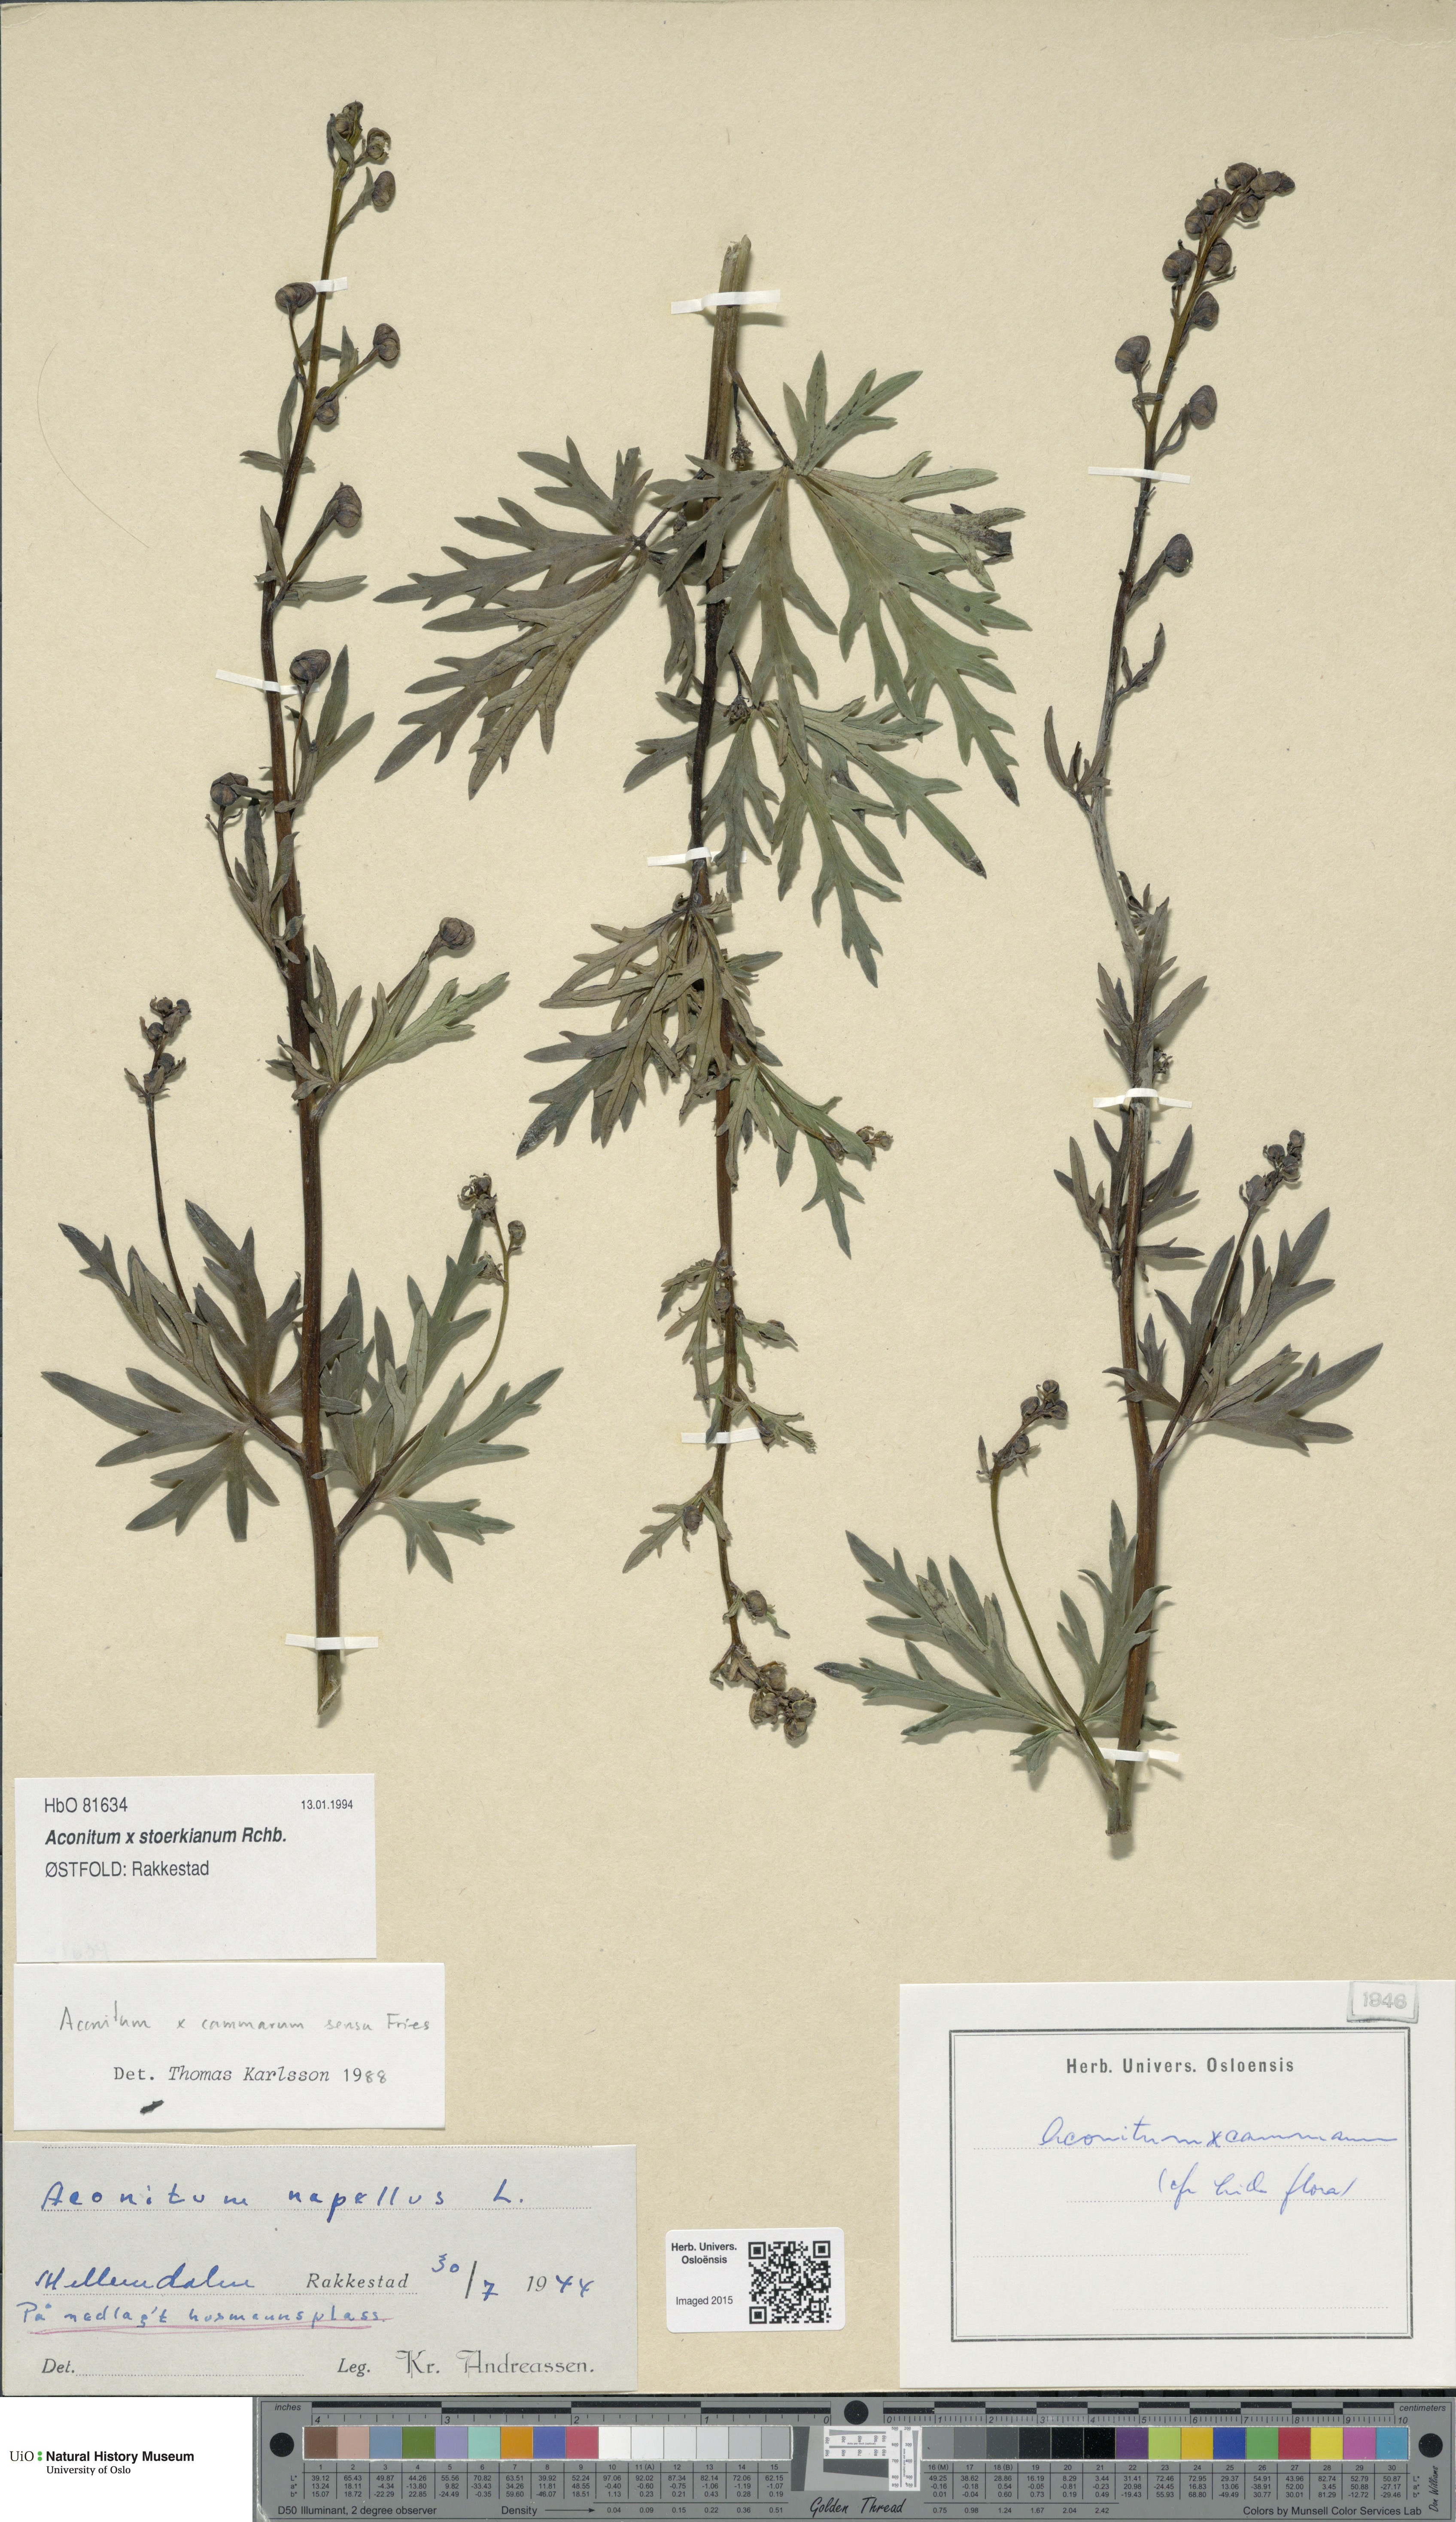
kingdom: Plantae
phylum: Tracheophyta
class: Magnoliopsida
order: Ranunculales
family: Ranunculaceae
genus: Aconitum
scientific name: Aconitum cammarum
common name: Hybrid monk's-hood
